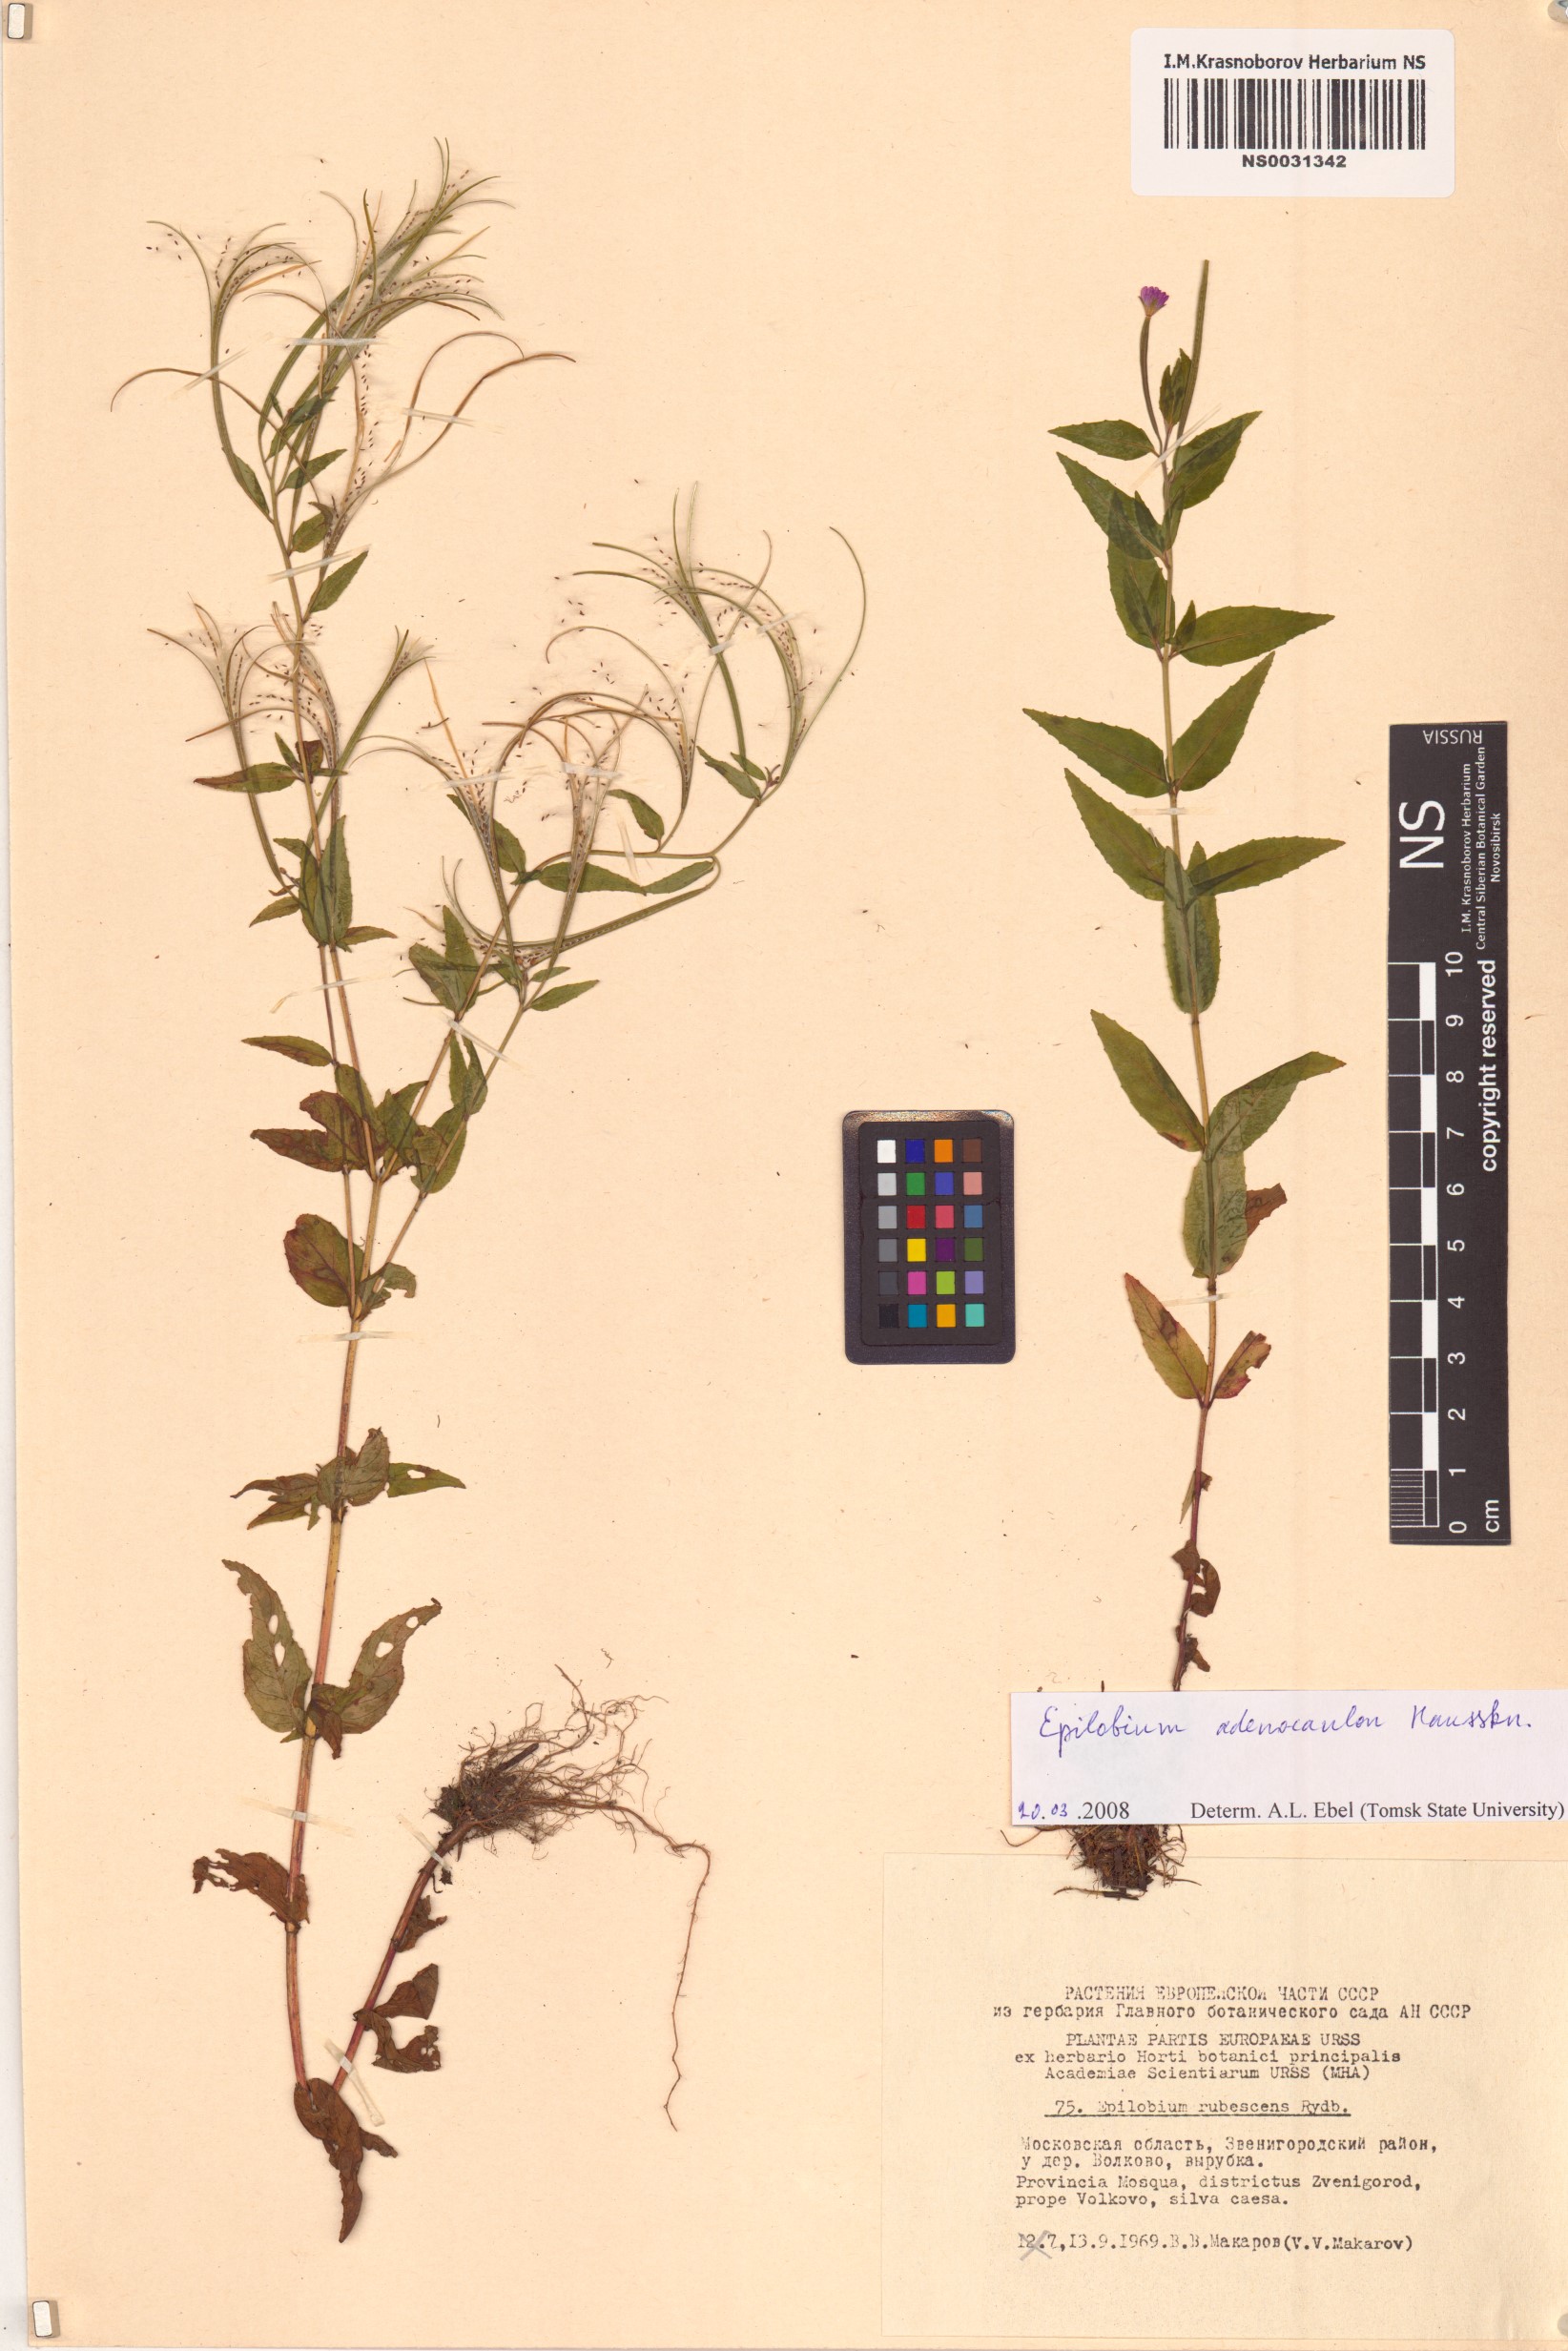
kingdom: Plantae
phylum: Tracheophyta
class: Magnoliopsida
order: Myrtales
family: Onagraceae
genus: Epilobium
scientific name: Epilobium ciliatum
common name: American willowherb
